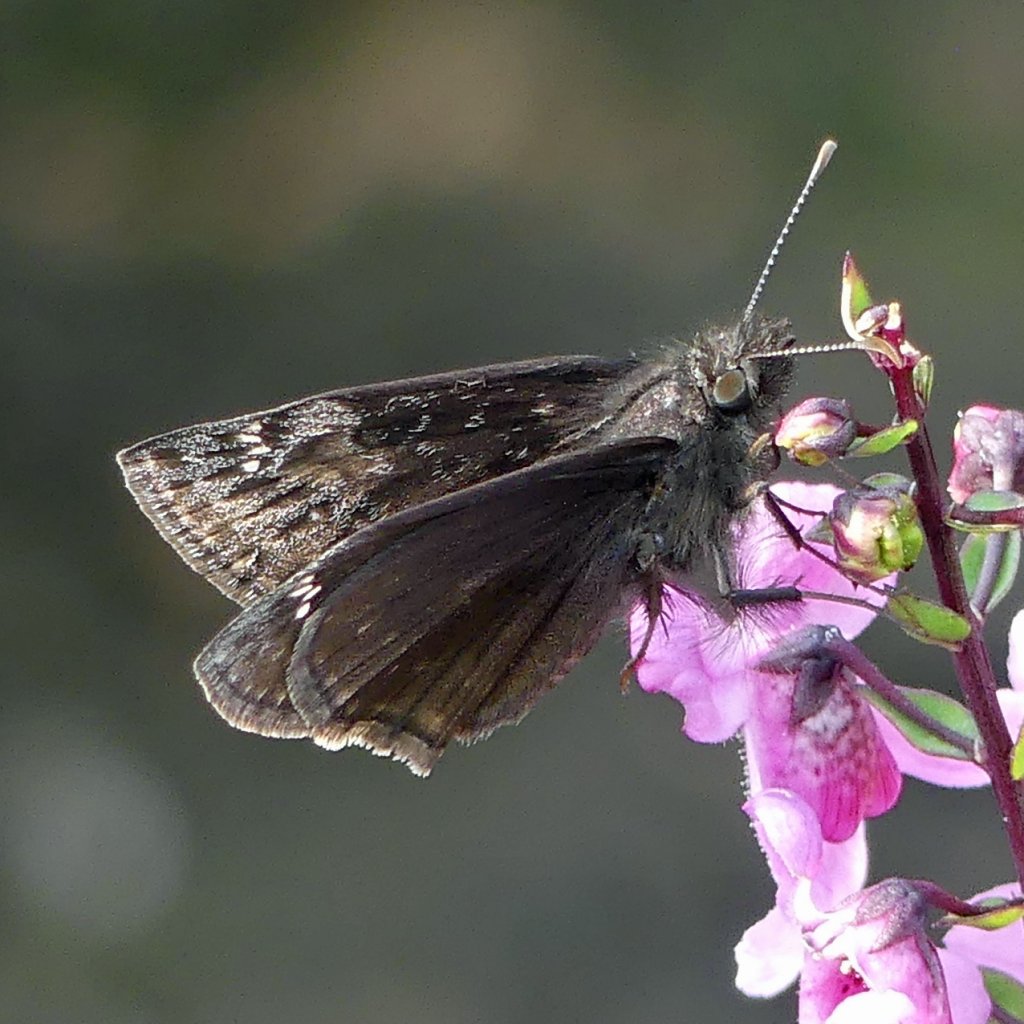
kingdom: Animalia
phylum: Arthropoda
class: Insecta
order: Lepidoptera
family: Hesperiidae
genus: Gesta
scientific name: Gesta
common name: Wild Indigo Duskywing
